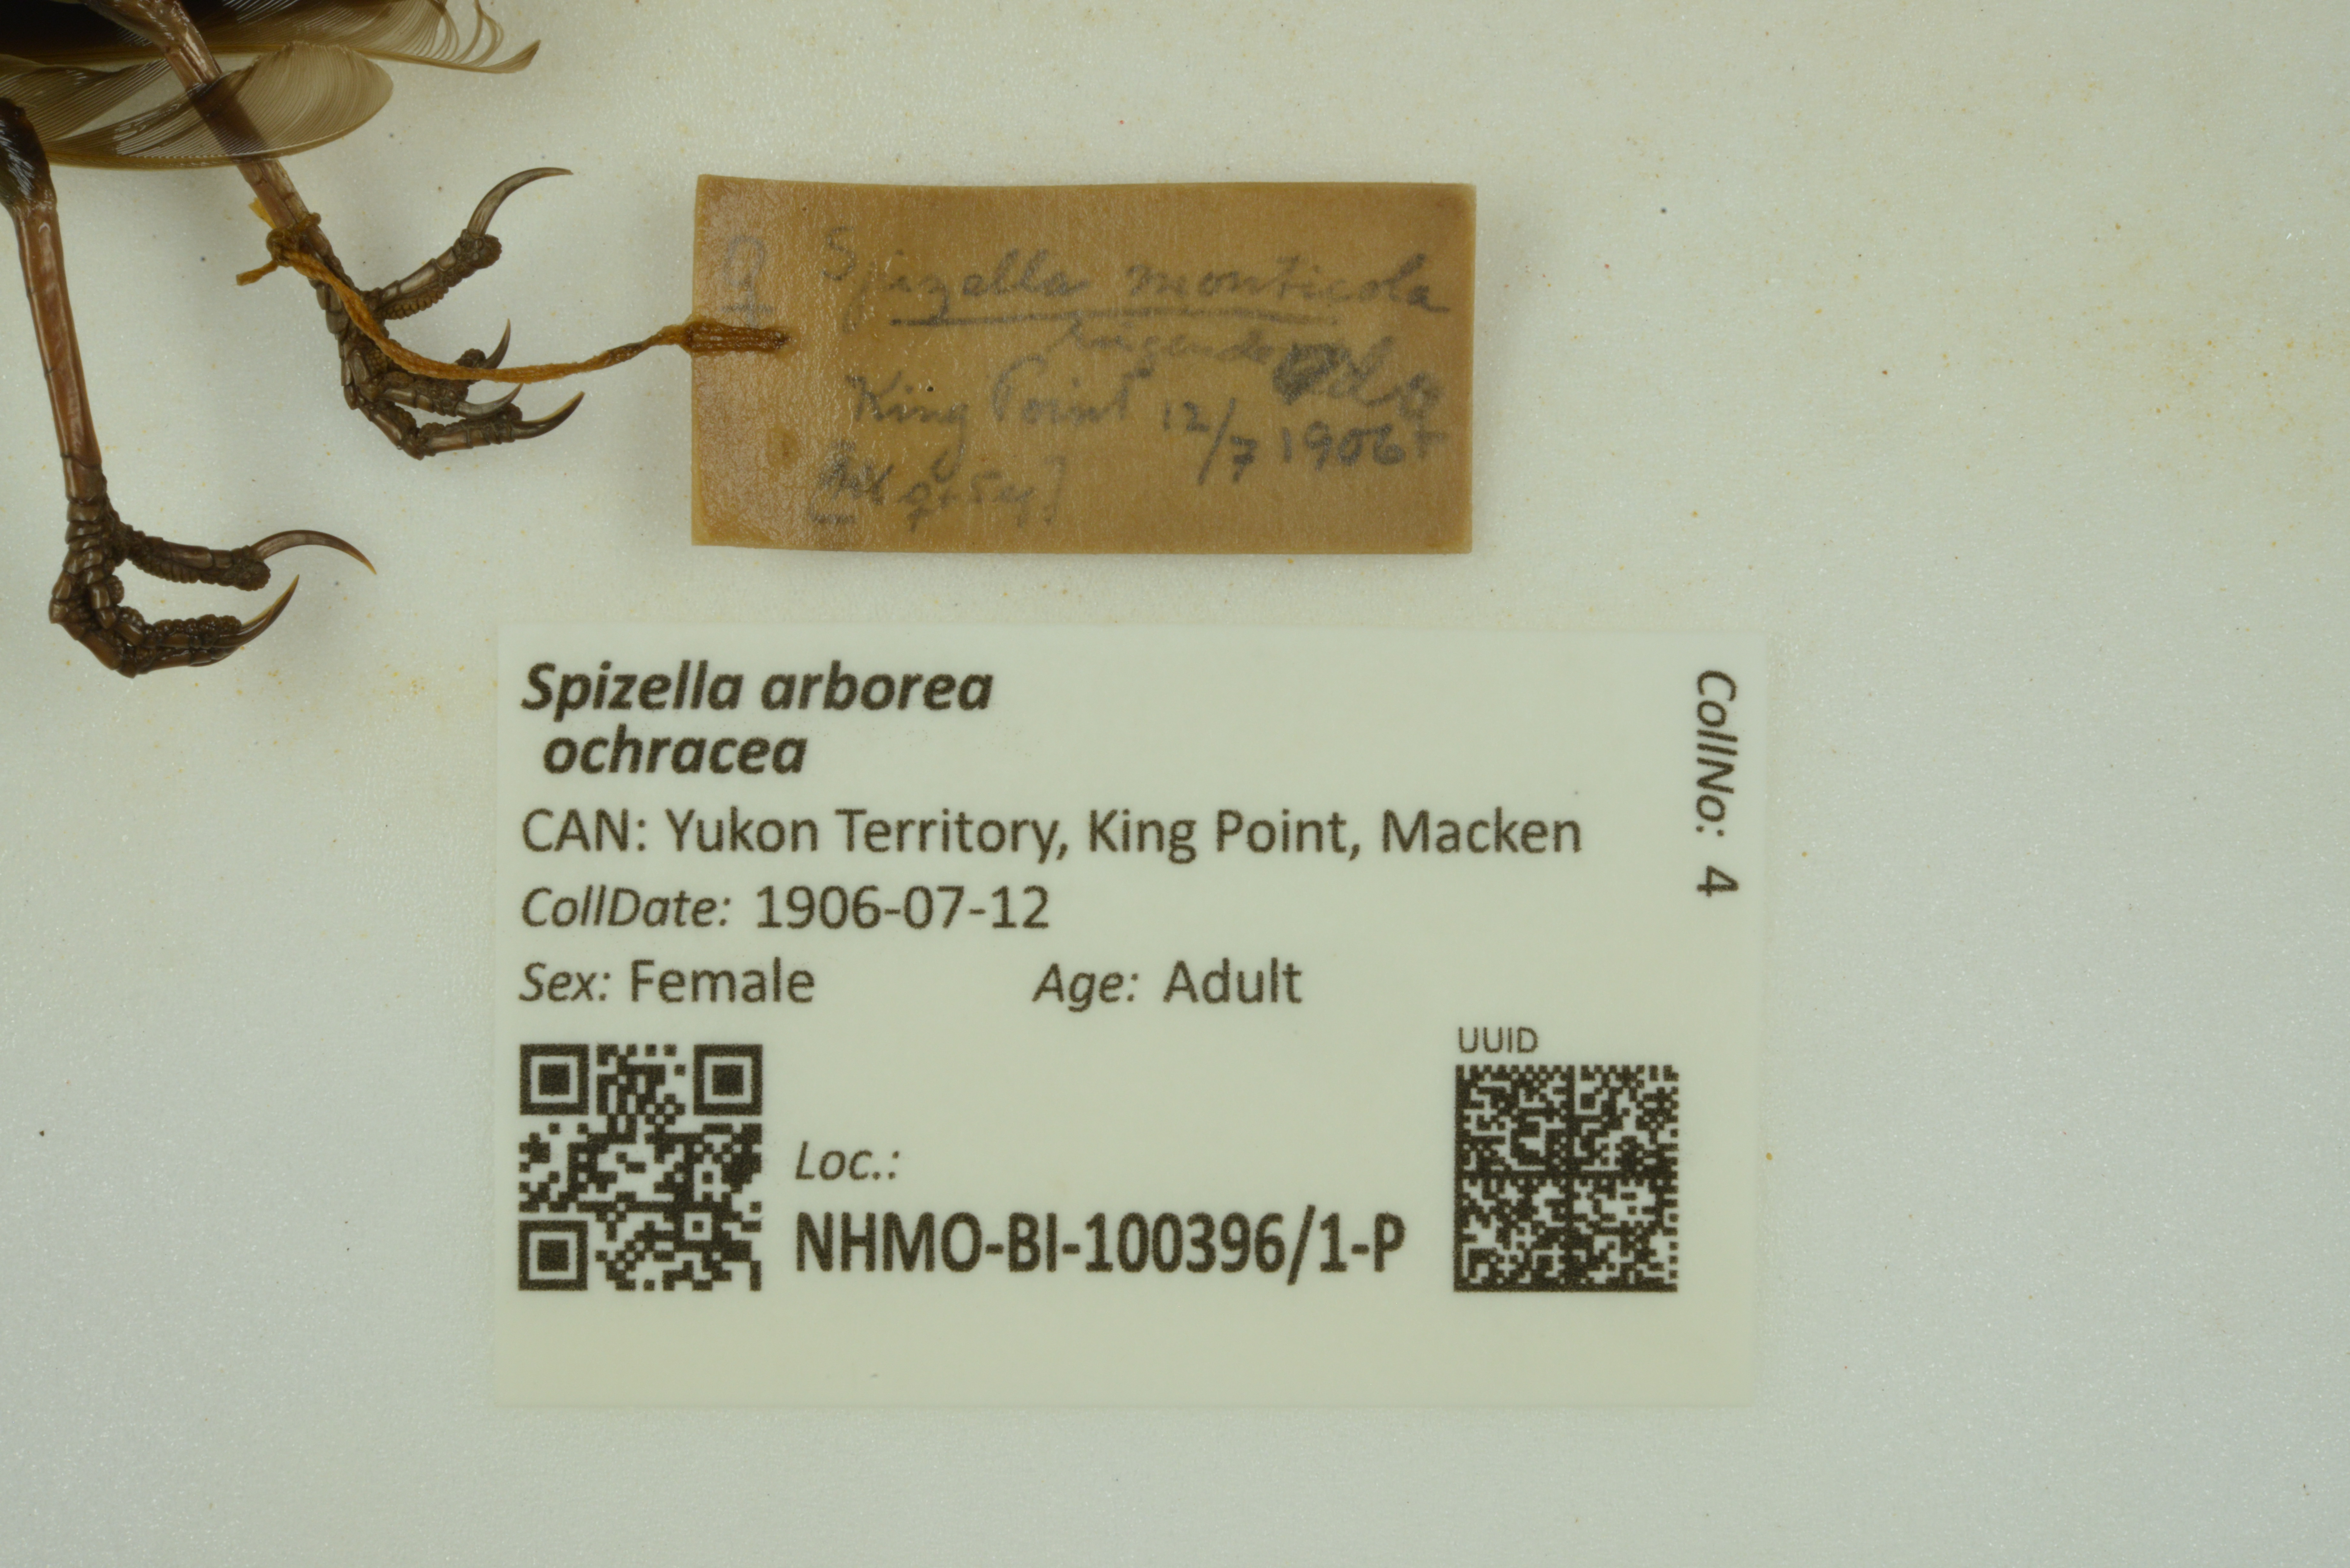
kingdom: Animalia
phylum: Chordata
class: Aves
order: Passeriformes
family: Passerellidae
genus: Spizelloides
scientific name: Spizelloides arborea
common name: American tree sparrow
